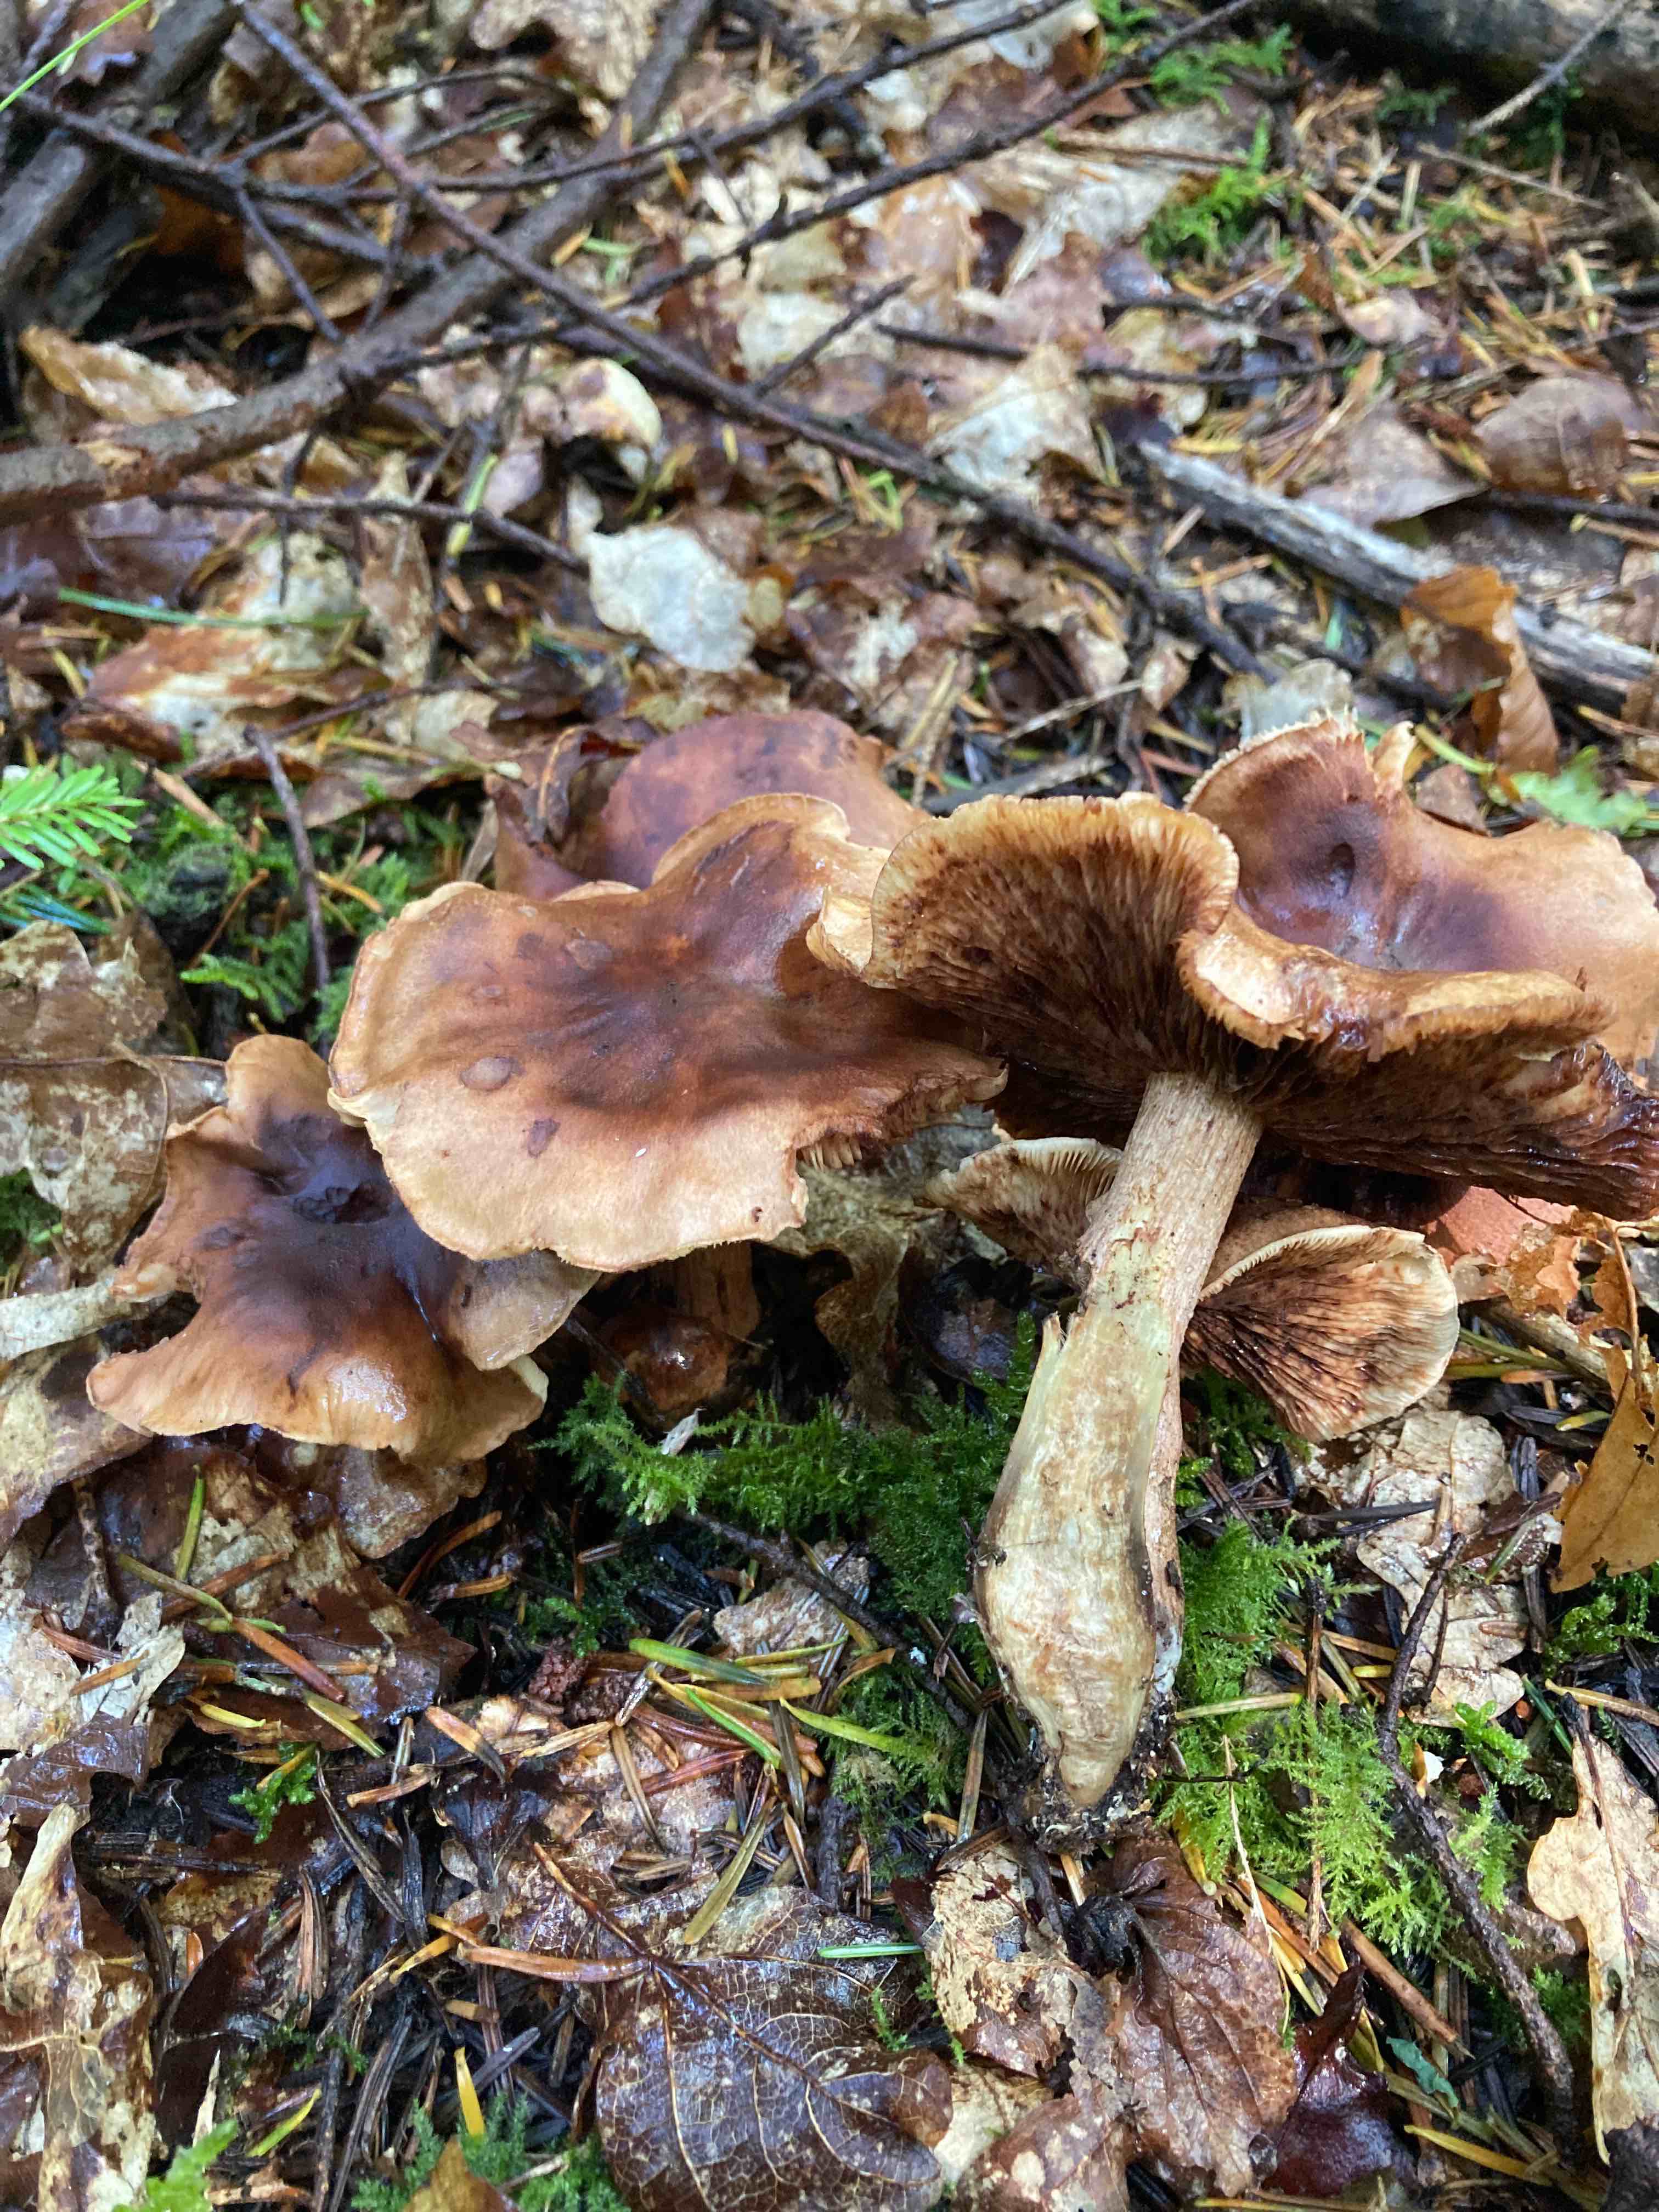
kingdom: Fungi
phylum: Basidiomycota
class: Agaricomycetes
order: Agaricales
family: Tricholomataceae
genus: Tricholoma
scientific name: Tricholoma fulvum
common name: birke-ridderhat
